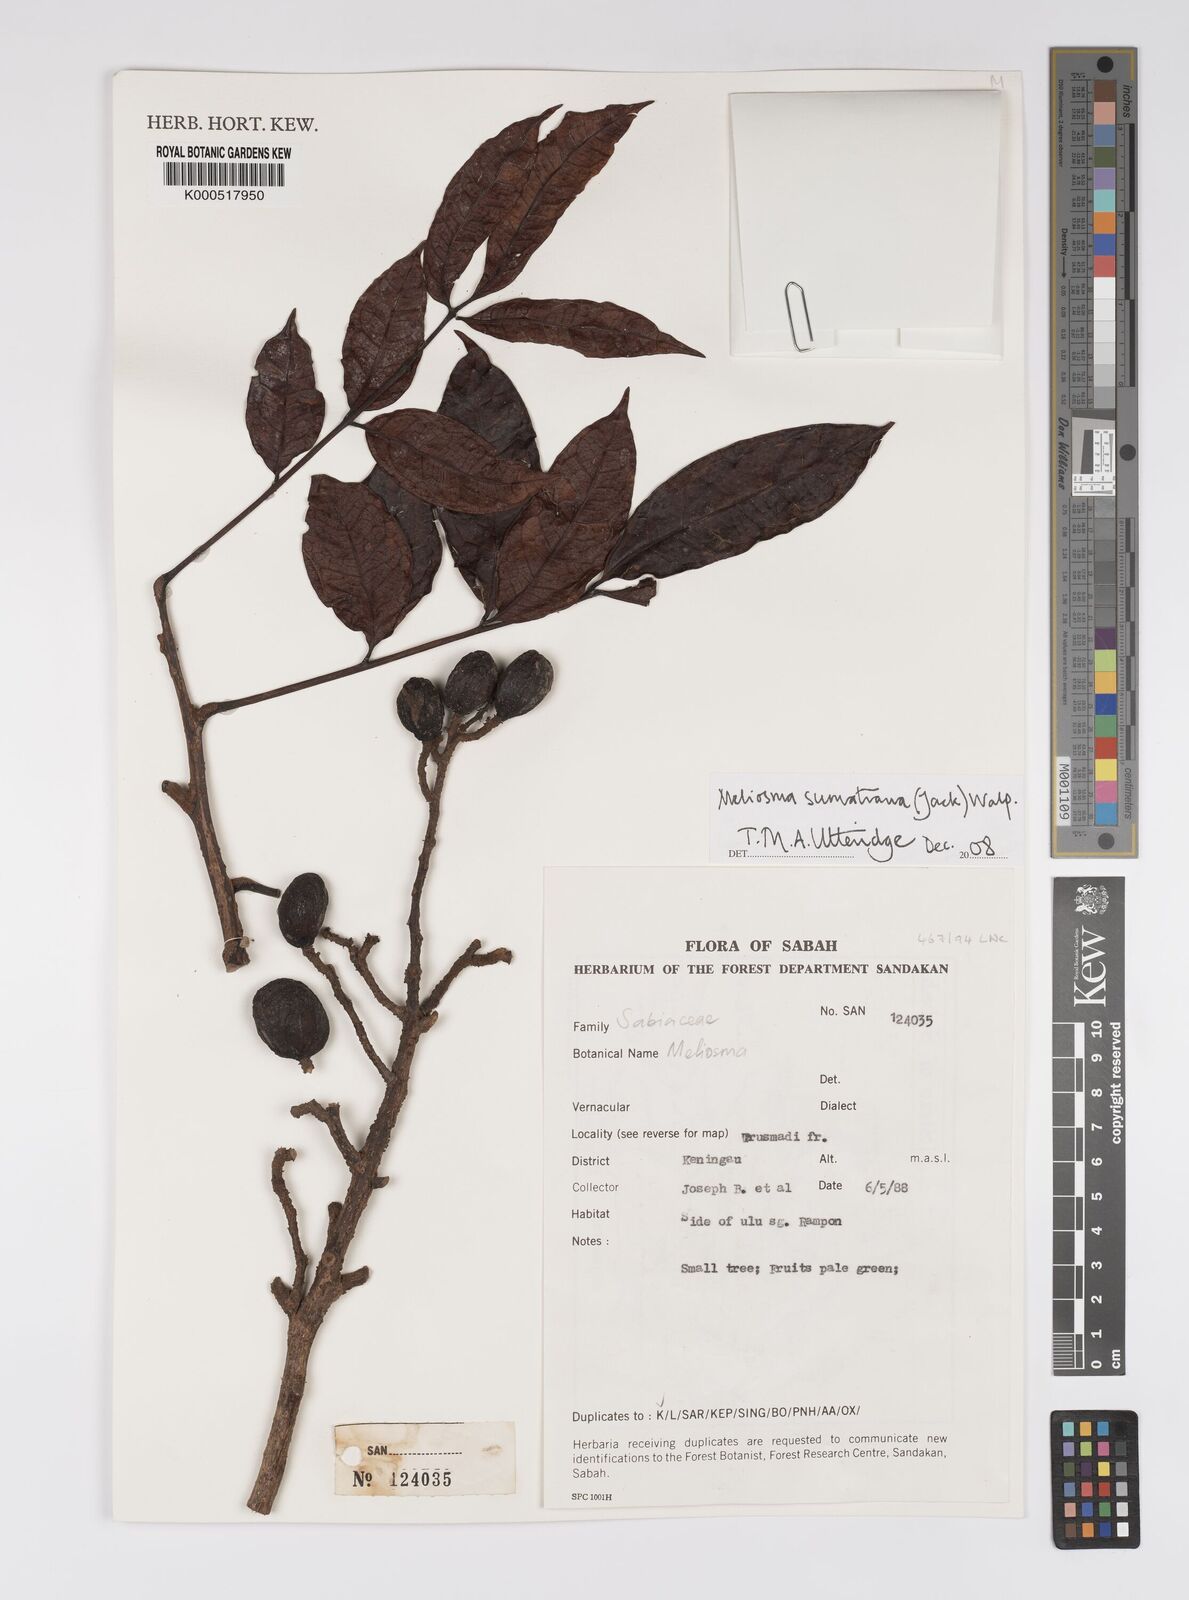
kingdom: Plantae
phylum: Tracheophyta
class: Magnoliopsida
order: Proteales
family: Sabiaceae
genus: Meliosma
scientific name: Meliosma sumatrana
